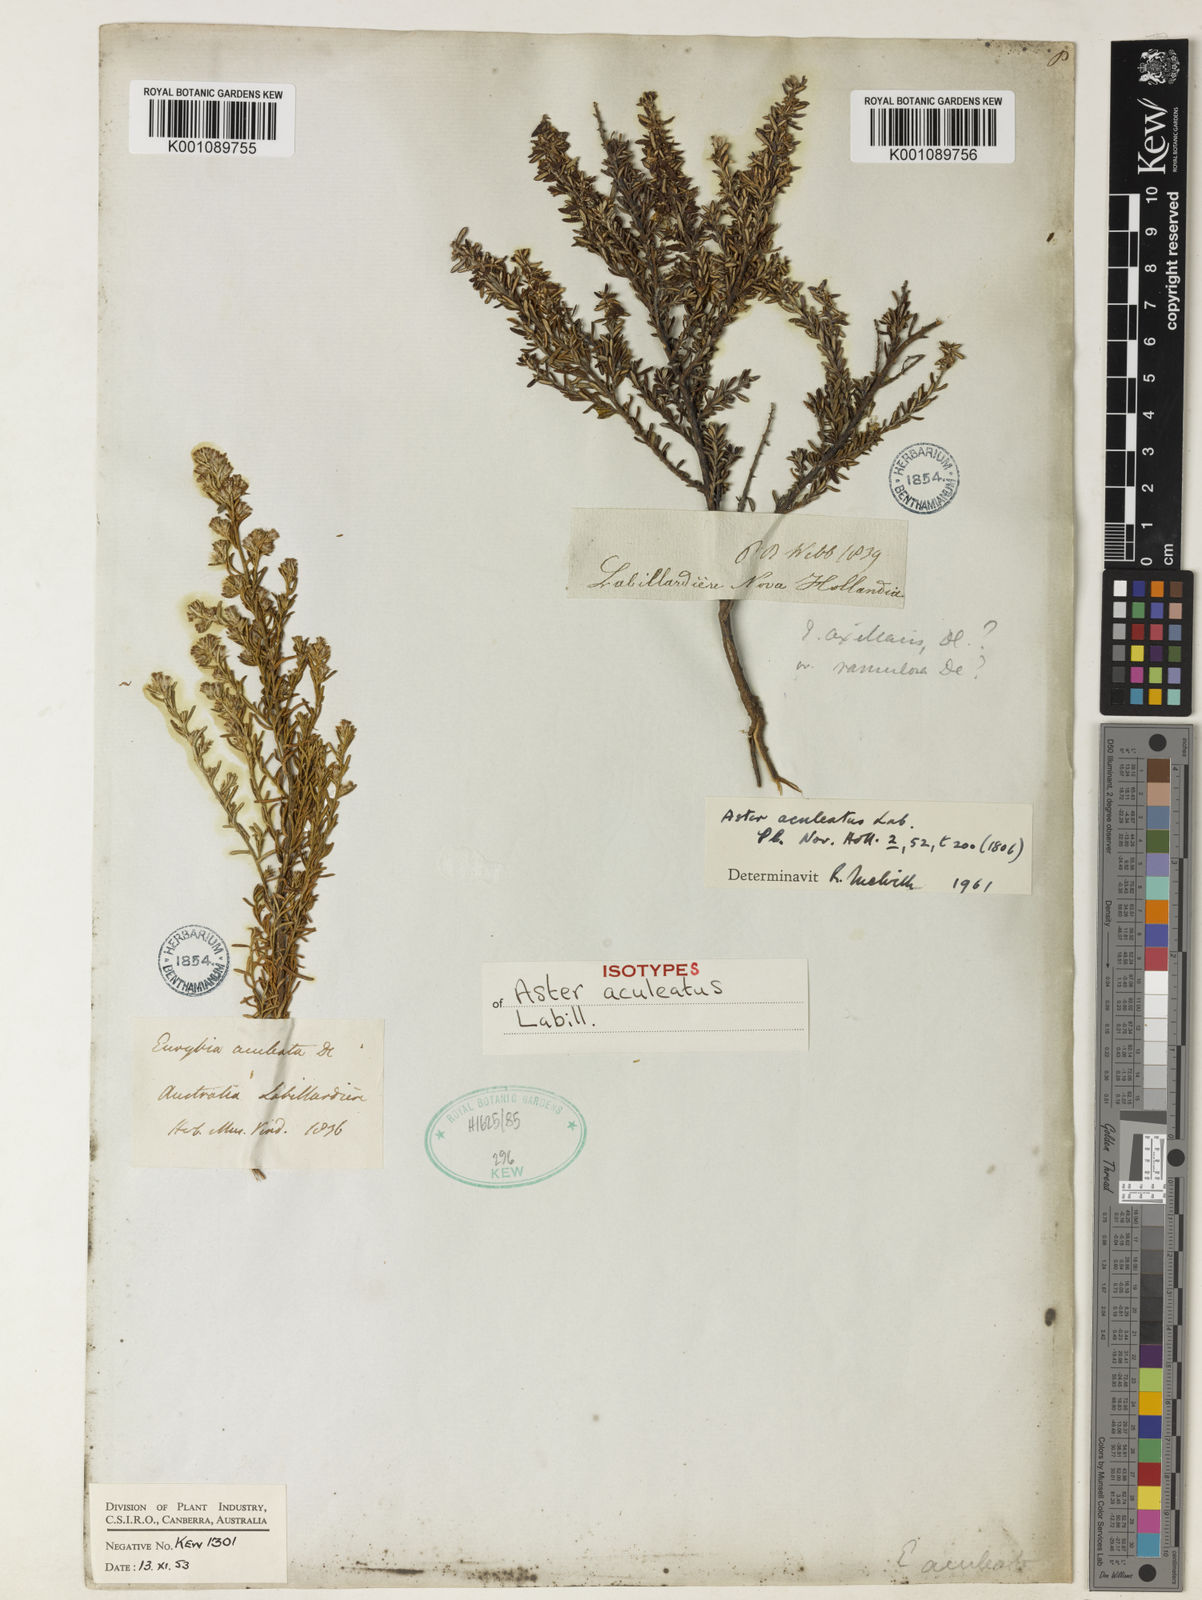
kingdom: Plantae
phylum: Tracheophyta
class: Magnoliopsida
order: Asterales
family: Asteraceae
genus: Olearia
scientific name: Olearia ramulosa
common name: Twiggy daisybush
